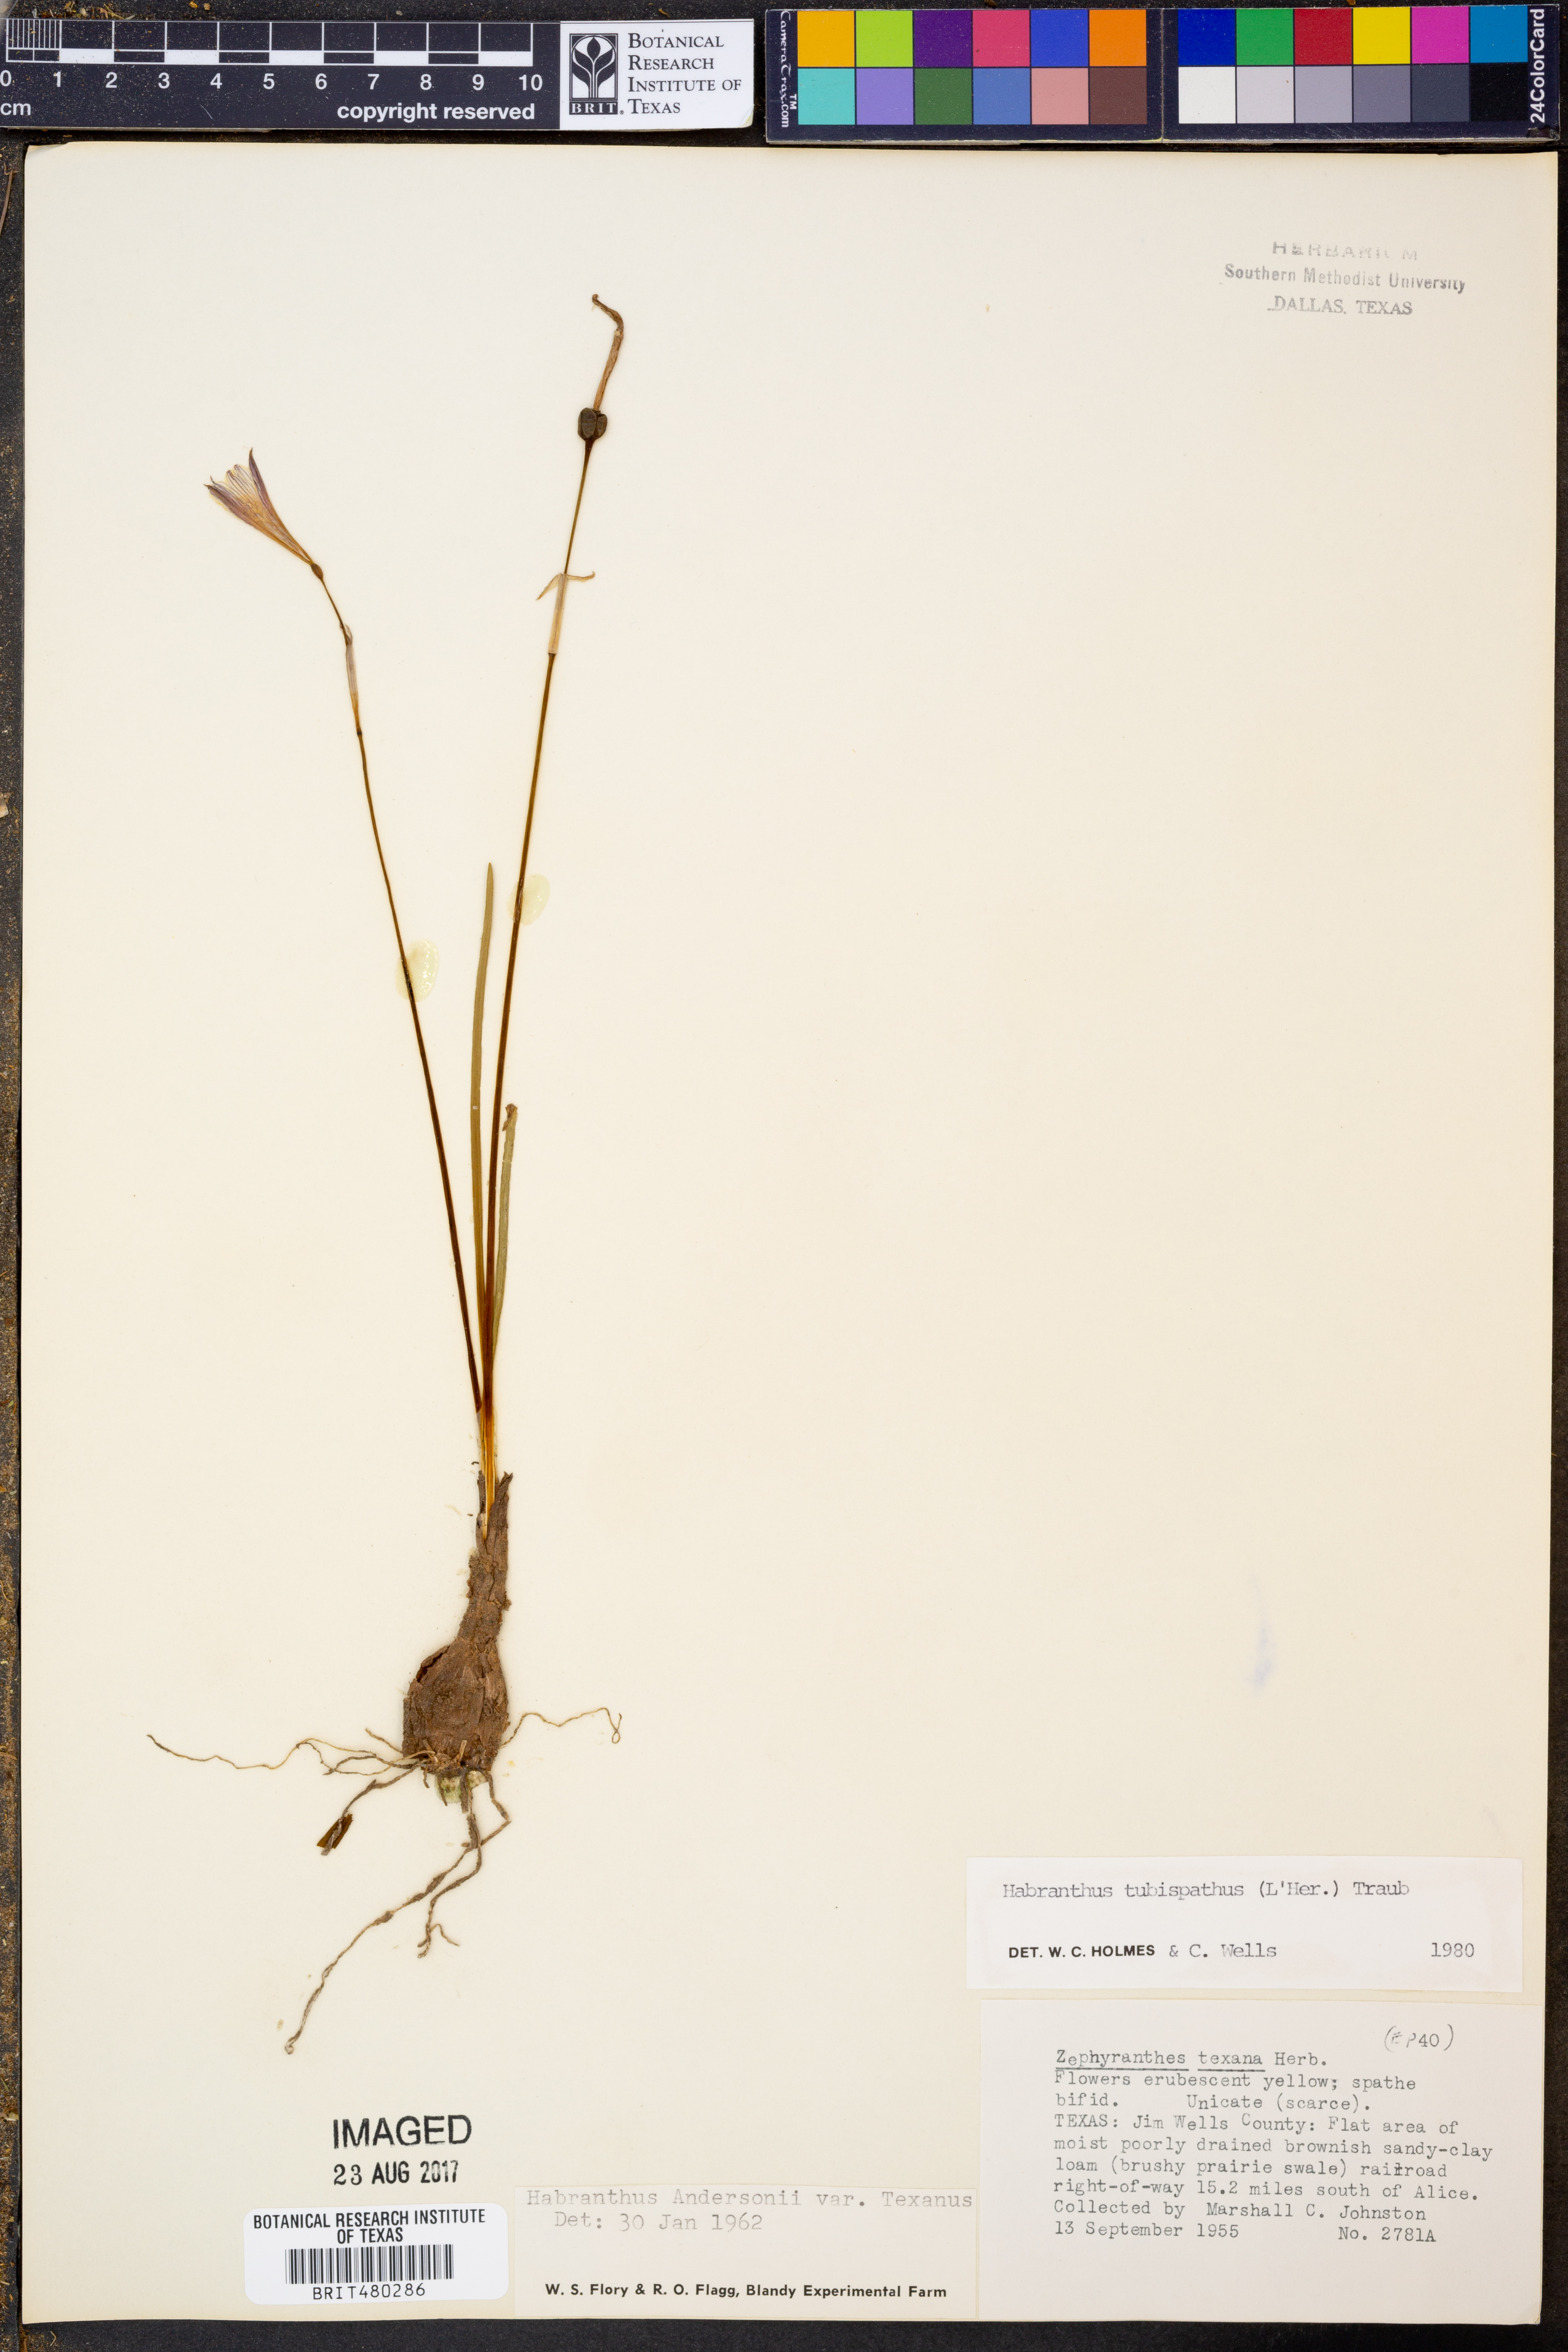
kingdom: Plantae
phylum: Tracheophyta
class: Liliopsida
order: Asparagales
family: Amaryllidaceae
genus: Zephyranthes
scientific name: Zephyranthes tubispatha
